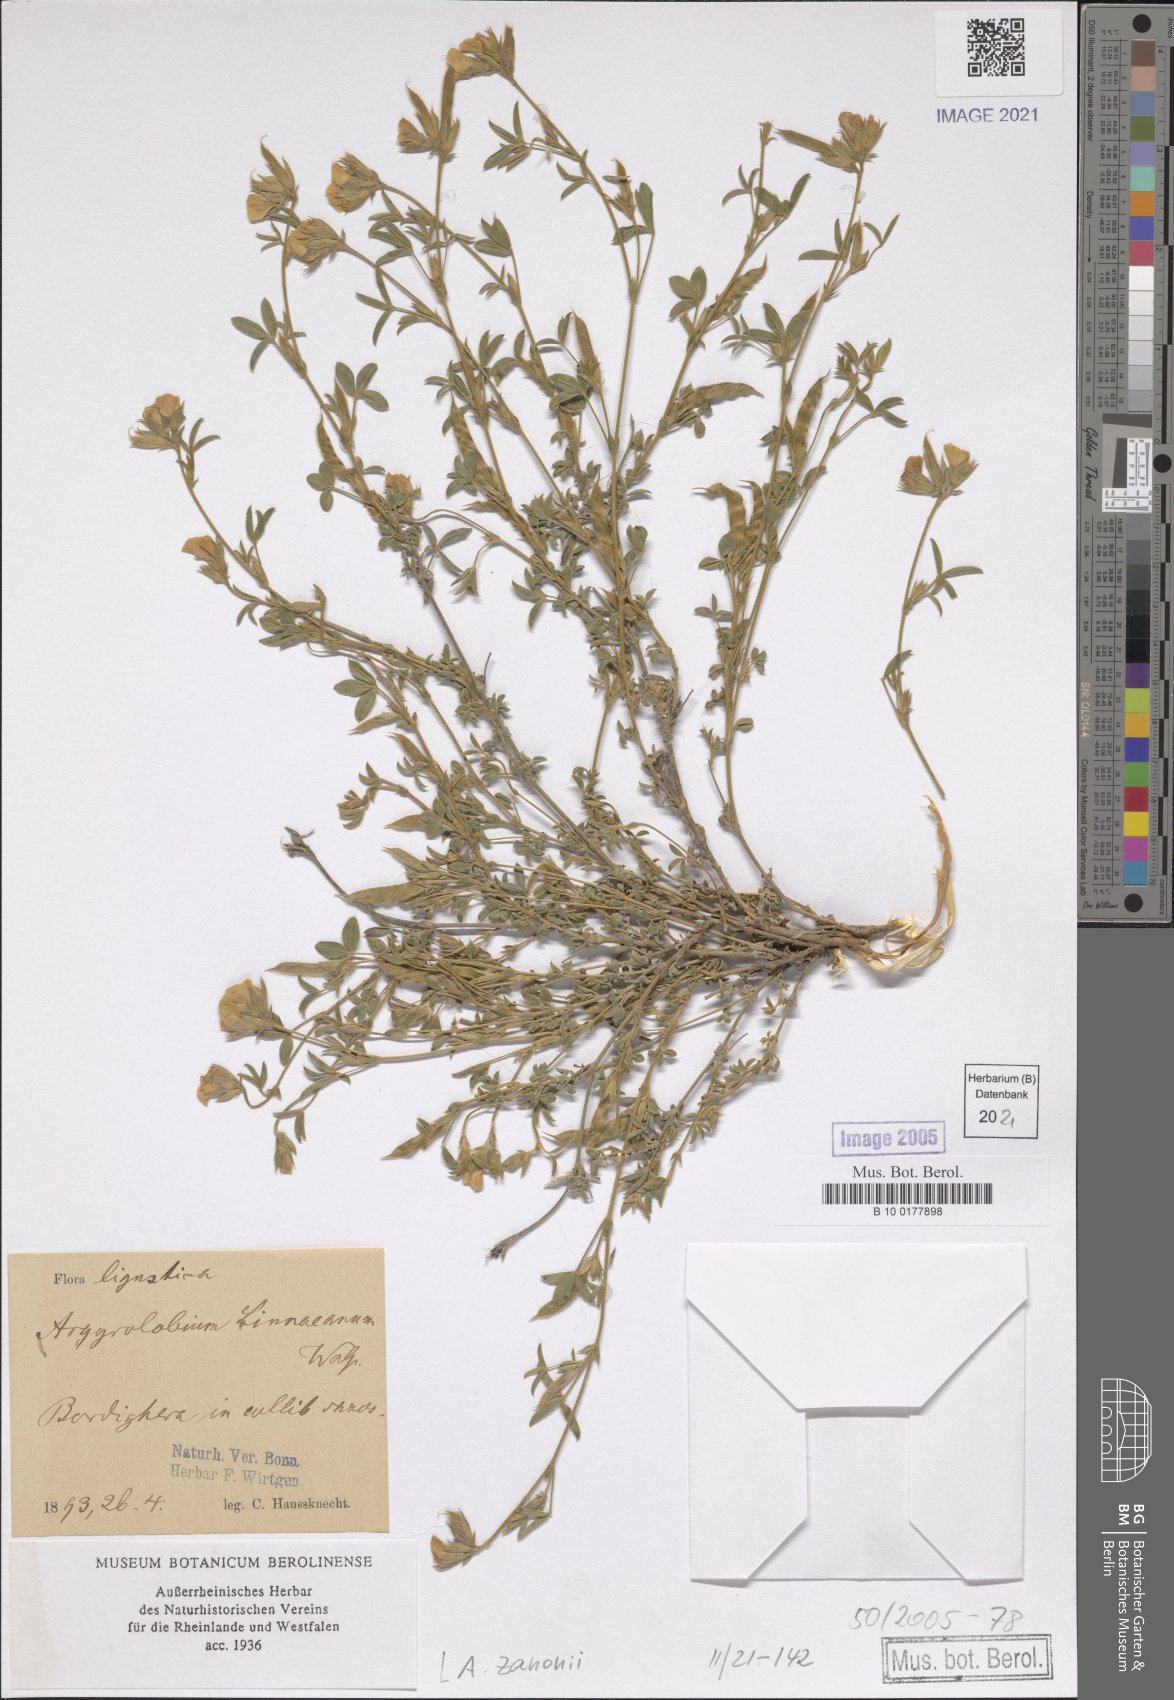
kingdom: Plantae
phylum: Tracheophyta
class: Magnoliopsida
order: Fabales
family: Fabaceae
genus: Argyrolobium
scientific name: Argyrolobium zanonii
